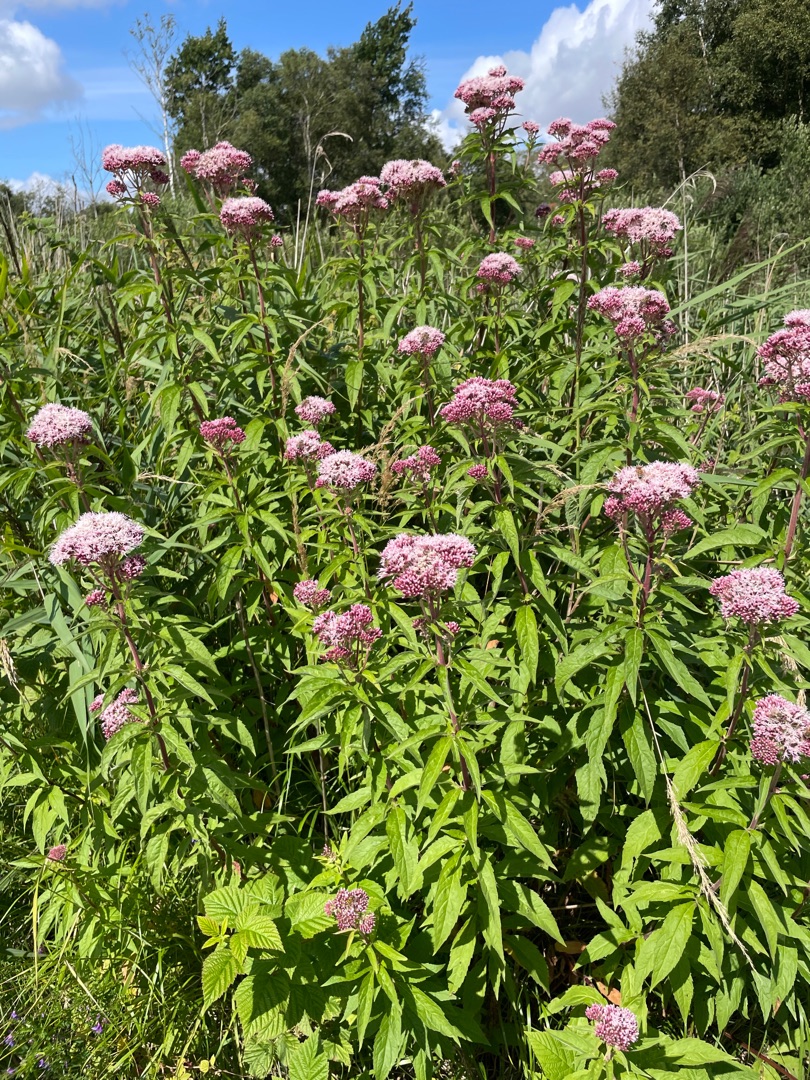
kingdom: Plantae
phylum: Tracheophyta
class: Magnoliopsida
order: Asterales
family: Asteraceae
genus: Eupatorium
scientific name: Eupatorium cannabinum
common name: Hjortetrøst
